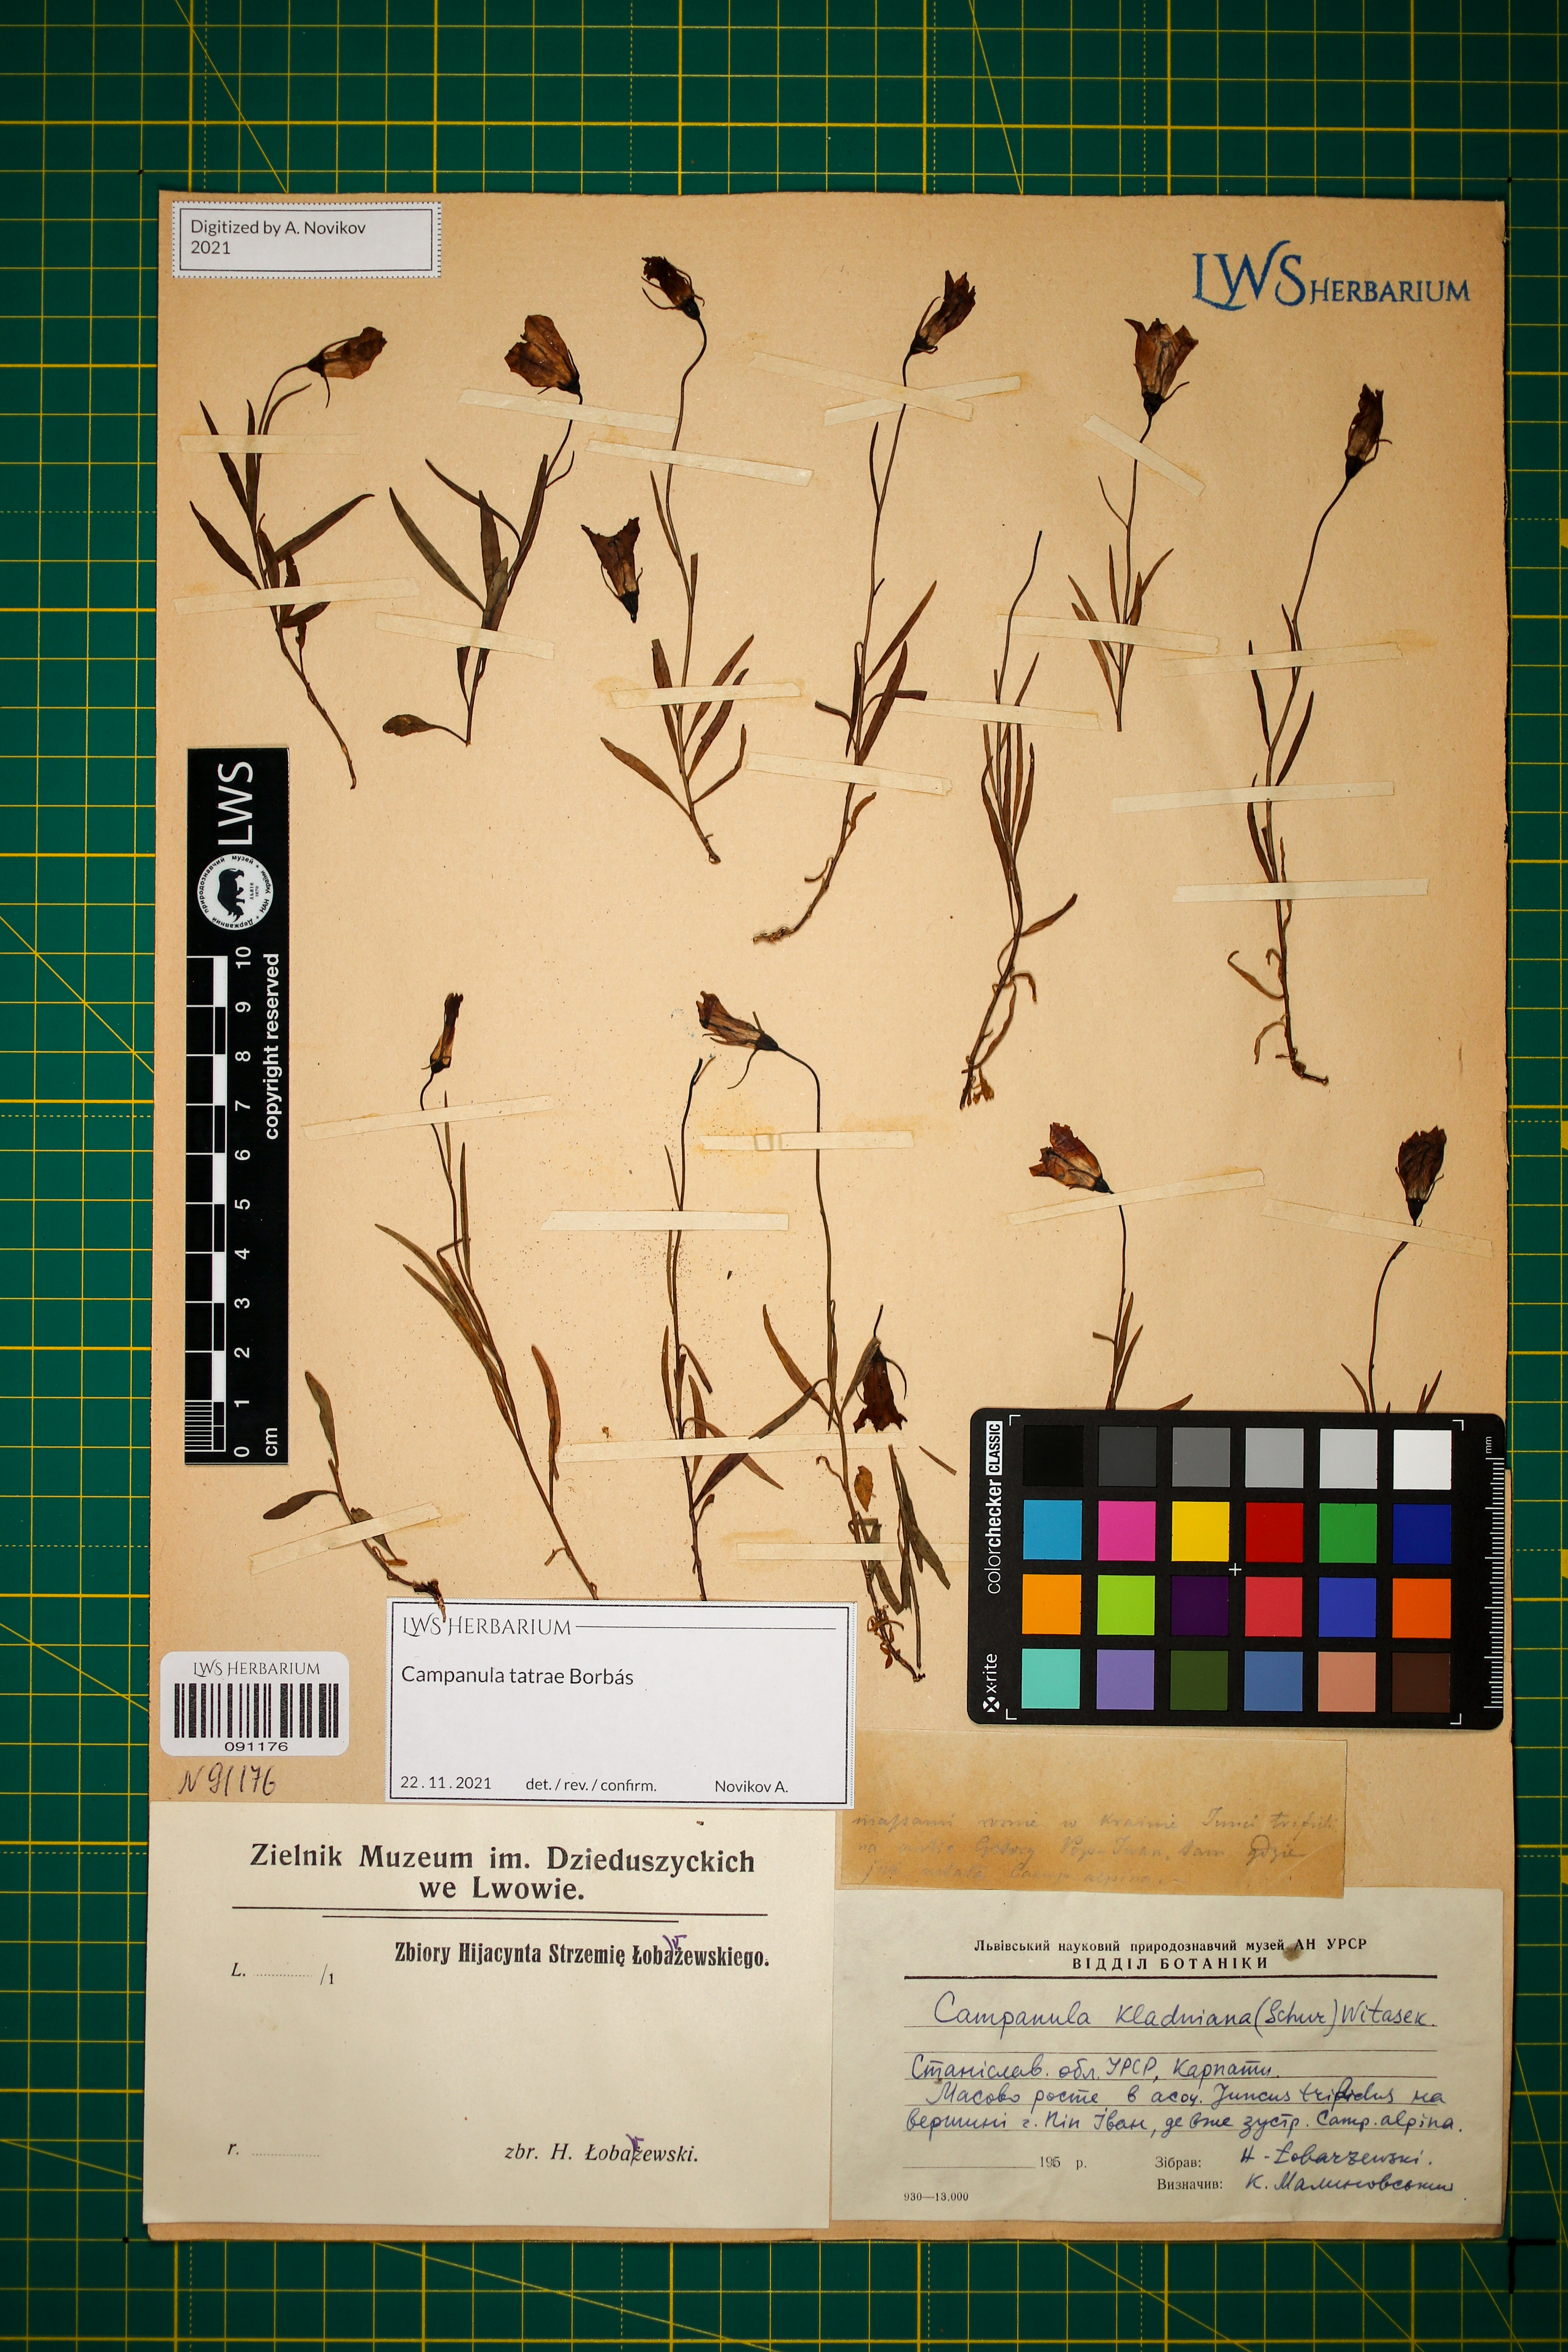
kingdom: Plantae
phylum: Tracheophyta
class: Magnoliopsida
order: Asterales
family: Campanulaceae
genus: Campanula
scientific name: Campanula kladniana
